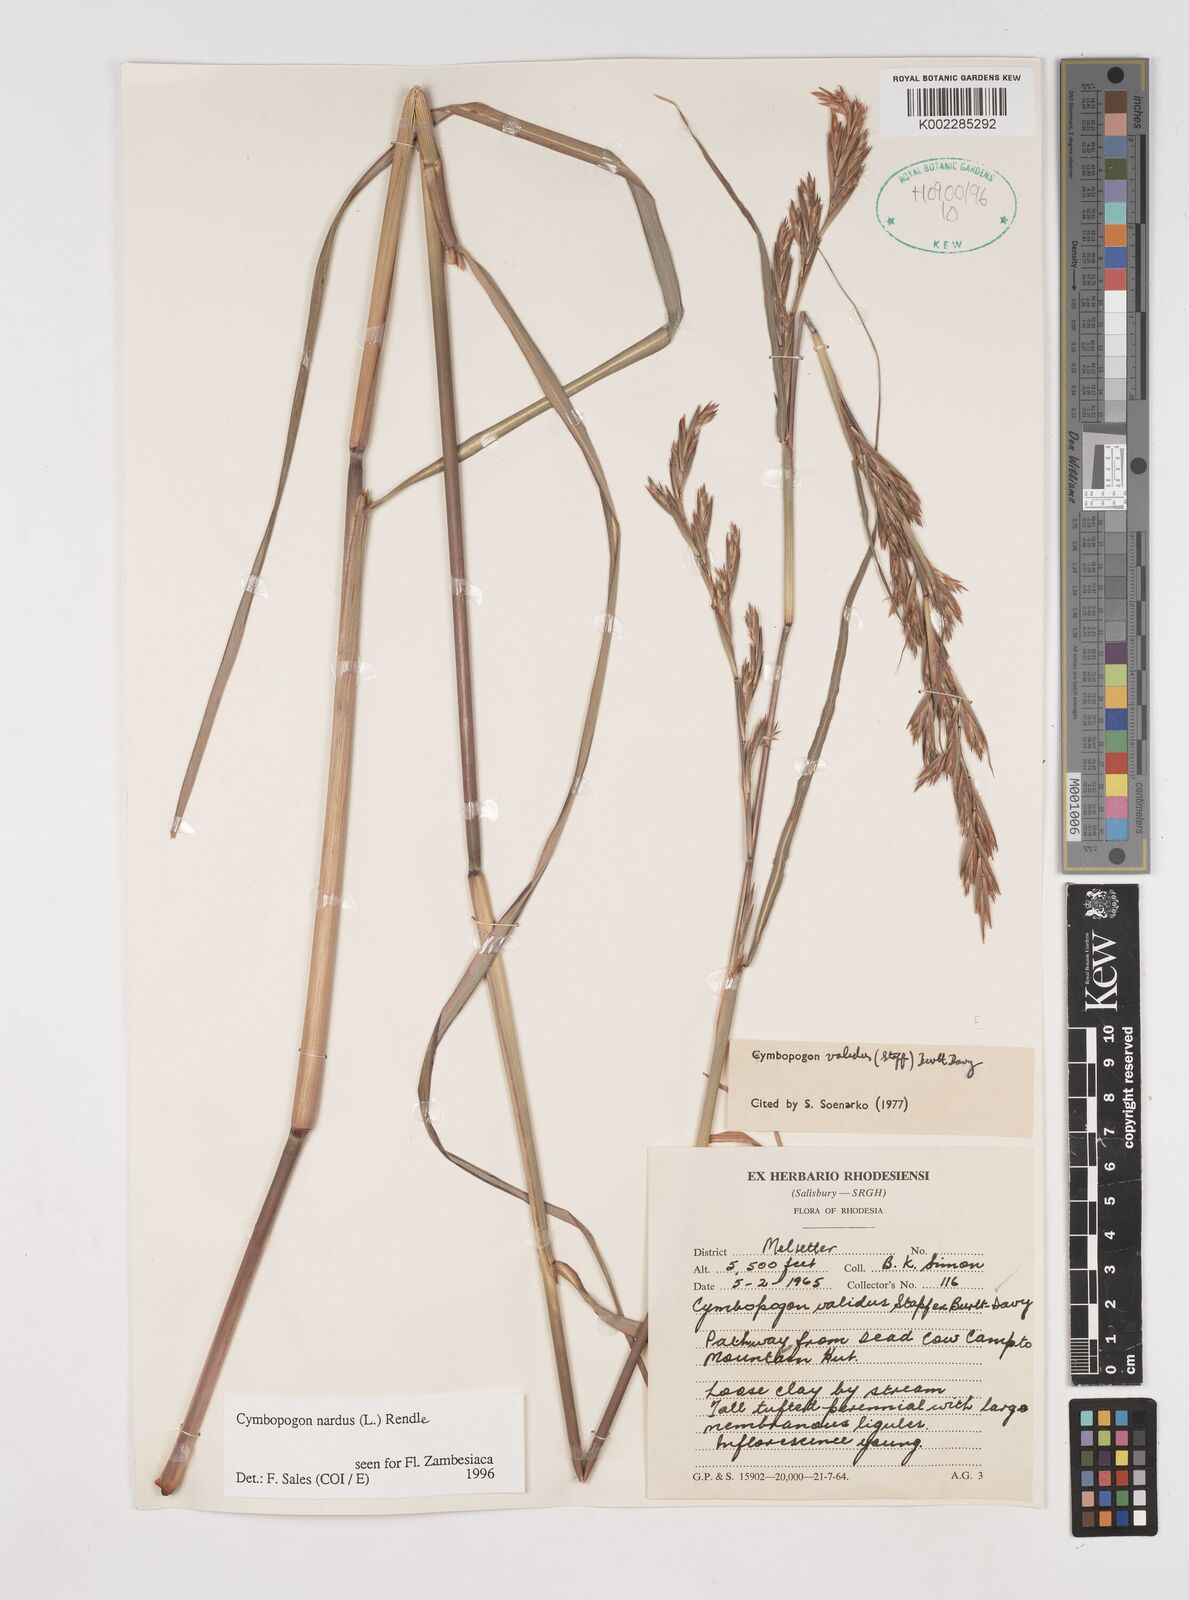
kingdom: Plantae
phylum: Tracheophyta
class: Liliopsida
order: Poales
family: Poaceae
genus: Cymbopogon
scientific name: Cymbopogon nardus
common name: Giant turpentine grass
